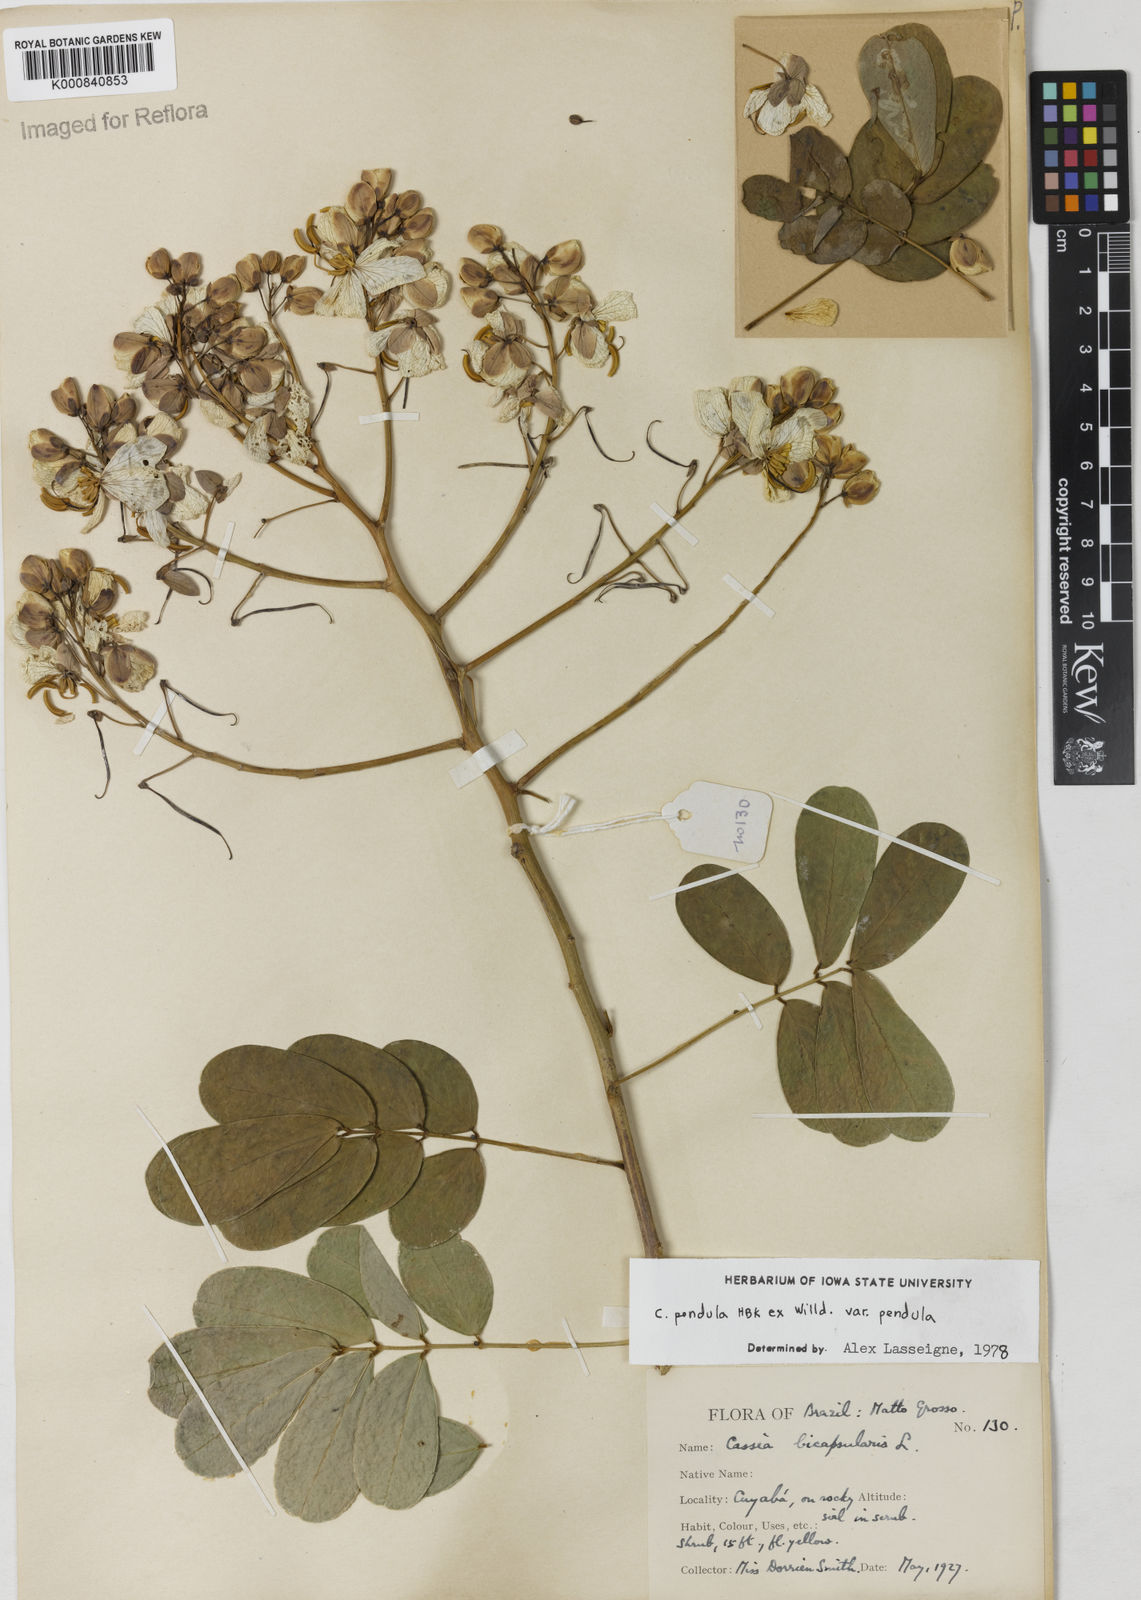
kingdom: Plantae
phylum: Tracheophyta
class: Magnoliopsida
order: Fabales
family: Fabaceae
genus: Senna
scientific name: Senna pendula
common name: Easter cassia
